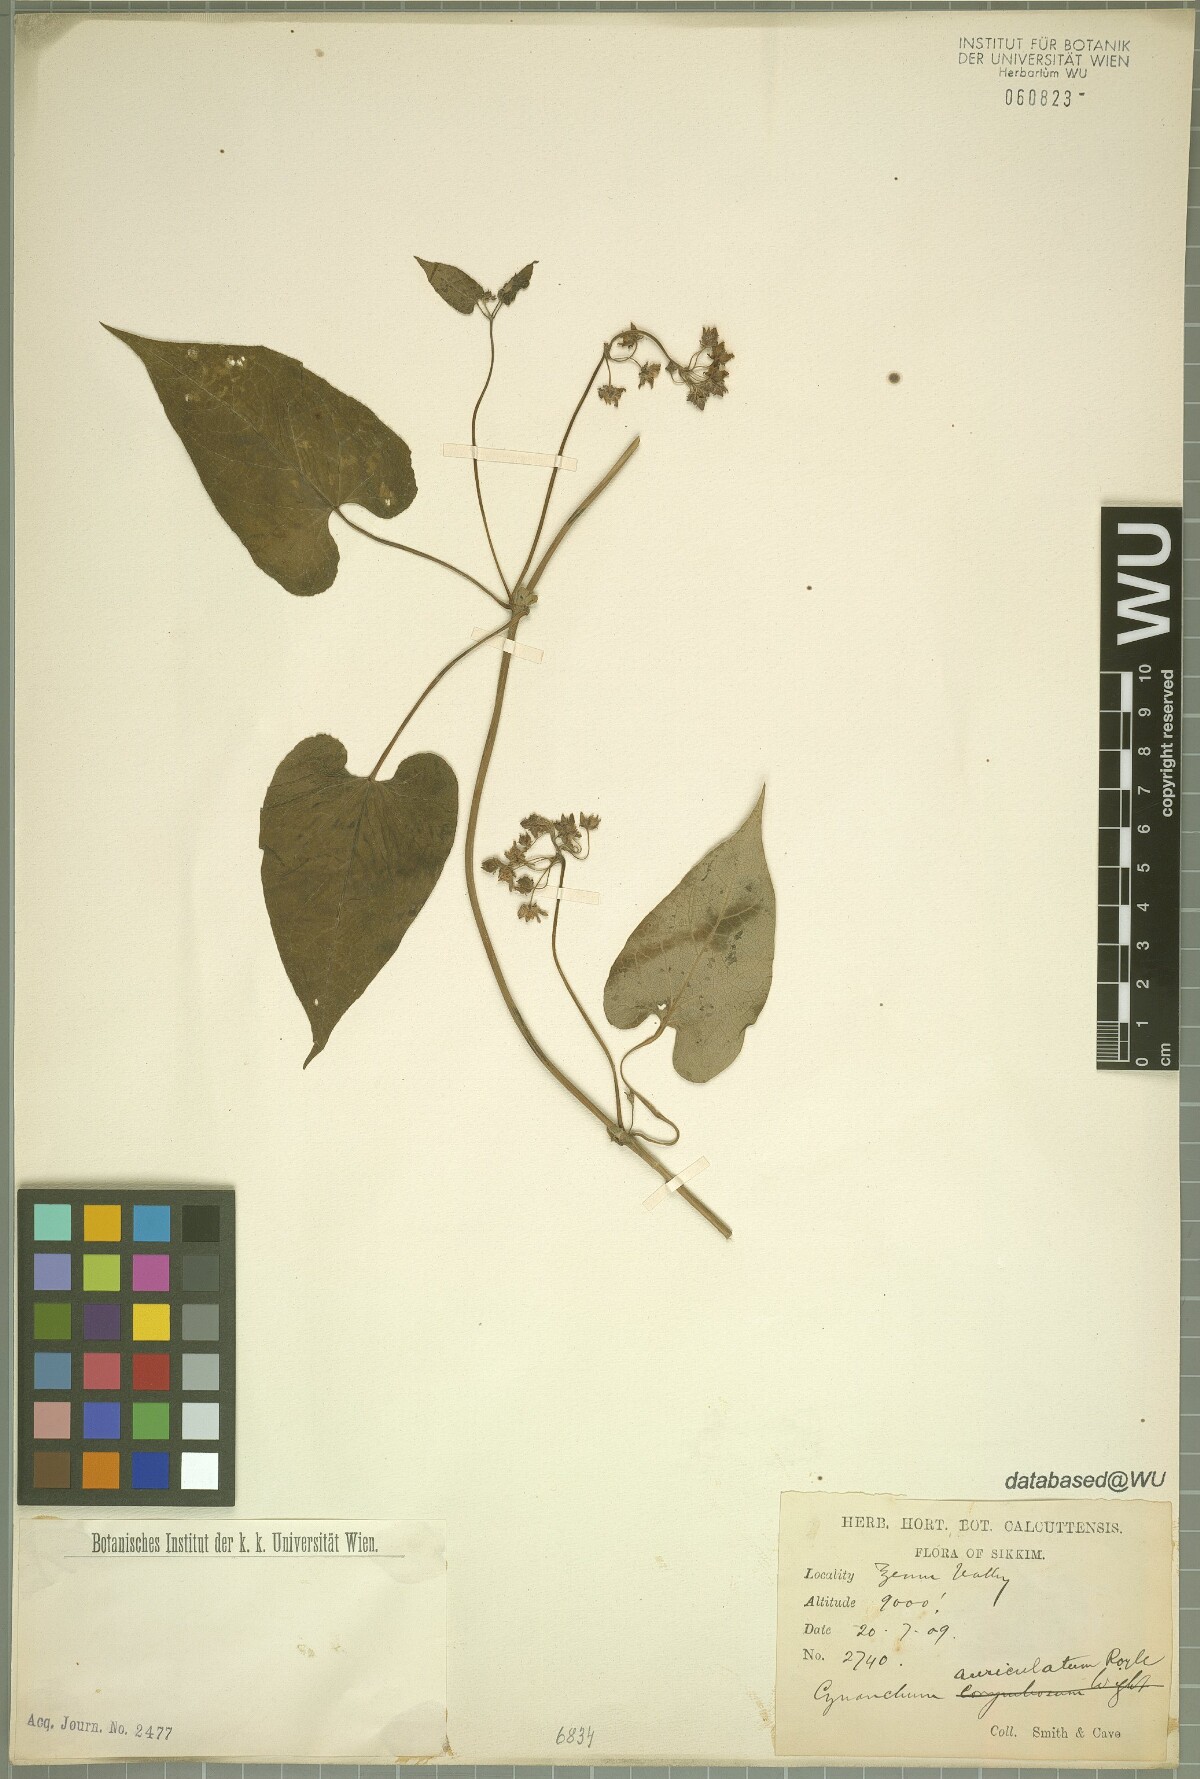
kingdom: Plantae
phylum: Tracheophyta
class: Magnoliopsida
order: Gentianales
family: Apocynaceae
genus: Cynanchum
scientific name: Cynanchum auriculatum
